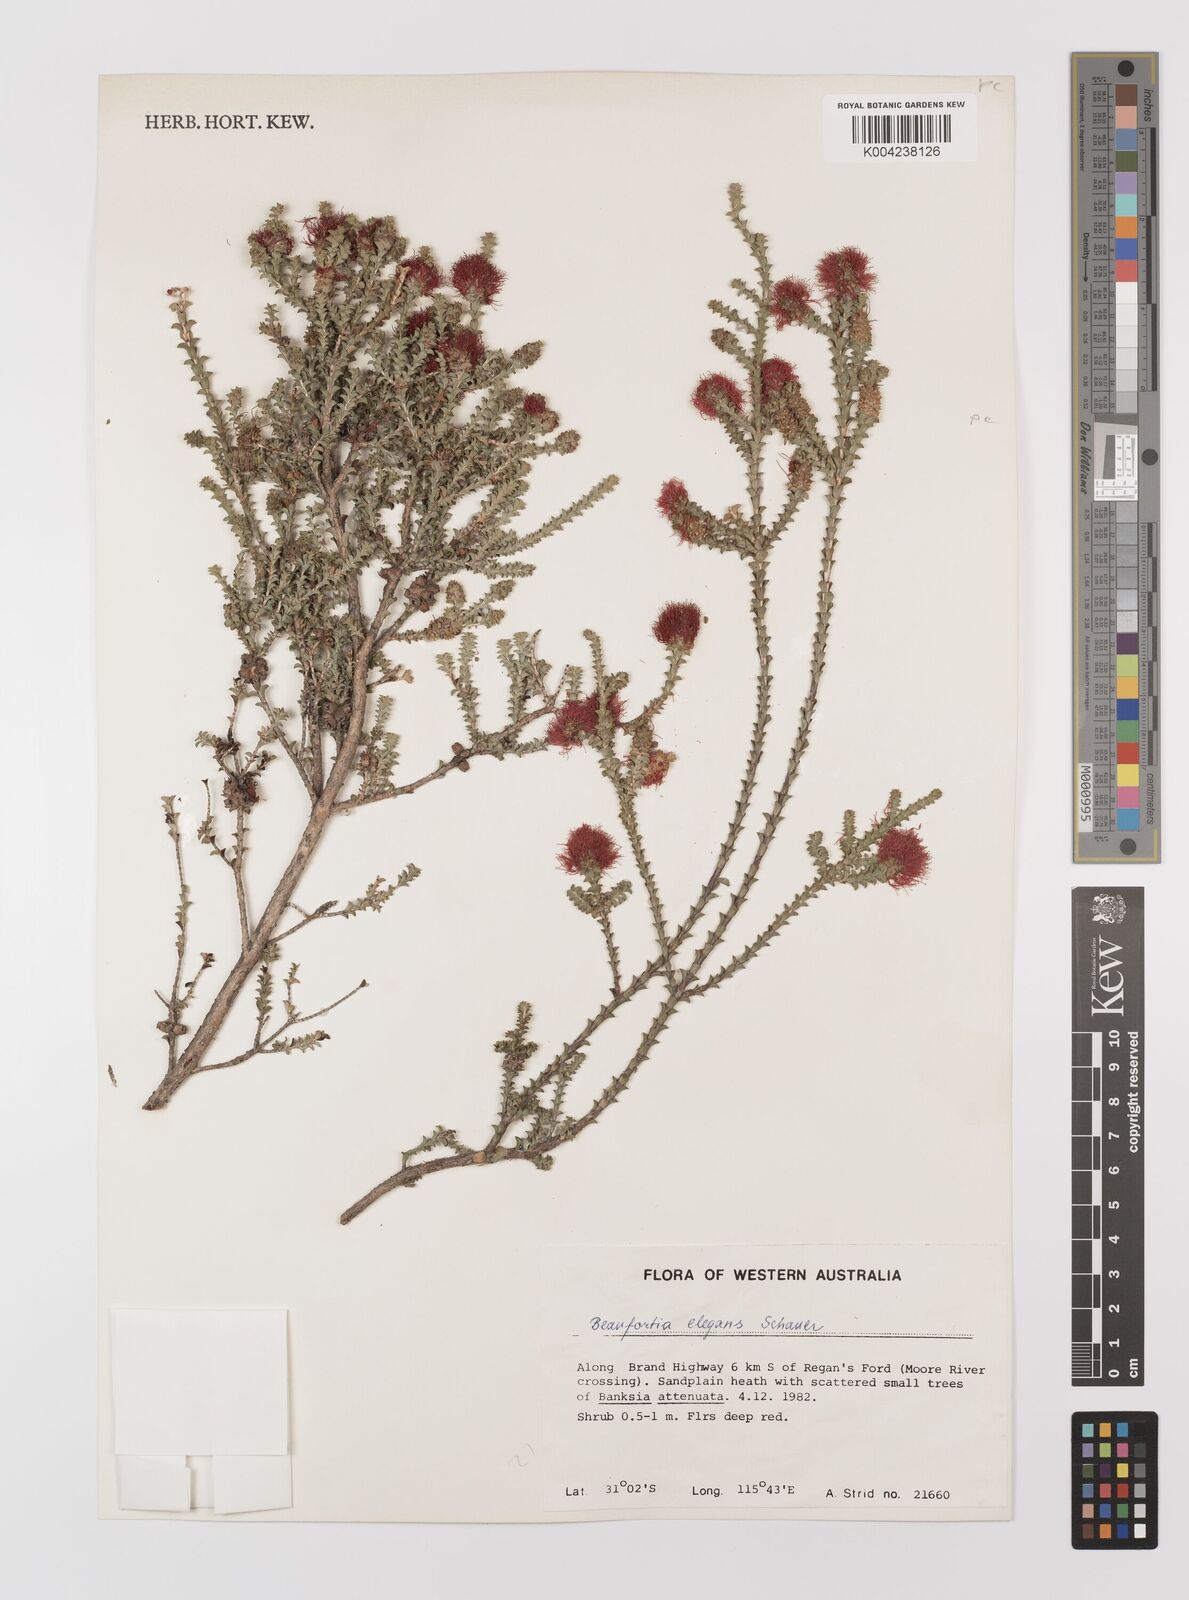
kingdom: Plantae
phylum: Tracheophyta
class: Magnoliopsida
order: Myrtales
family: Myrtaceae
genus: Melaleuca
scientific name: Melaleuca scitula
